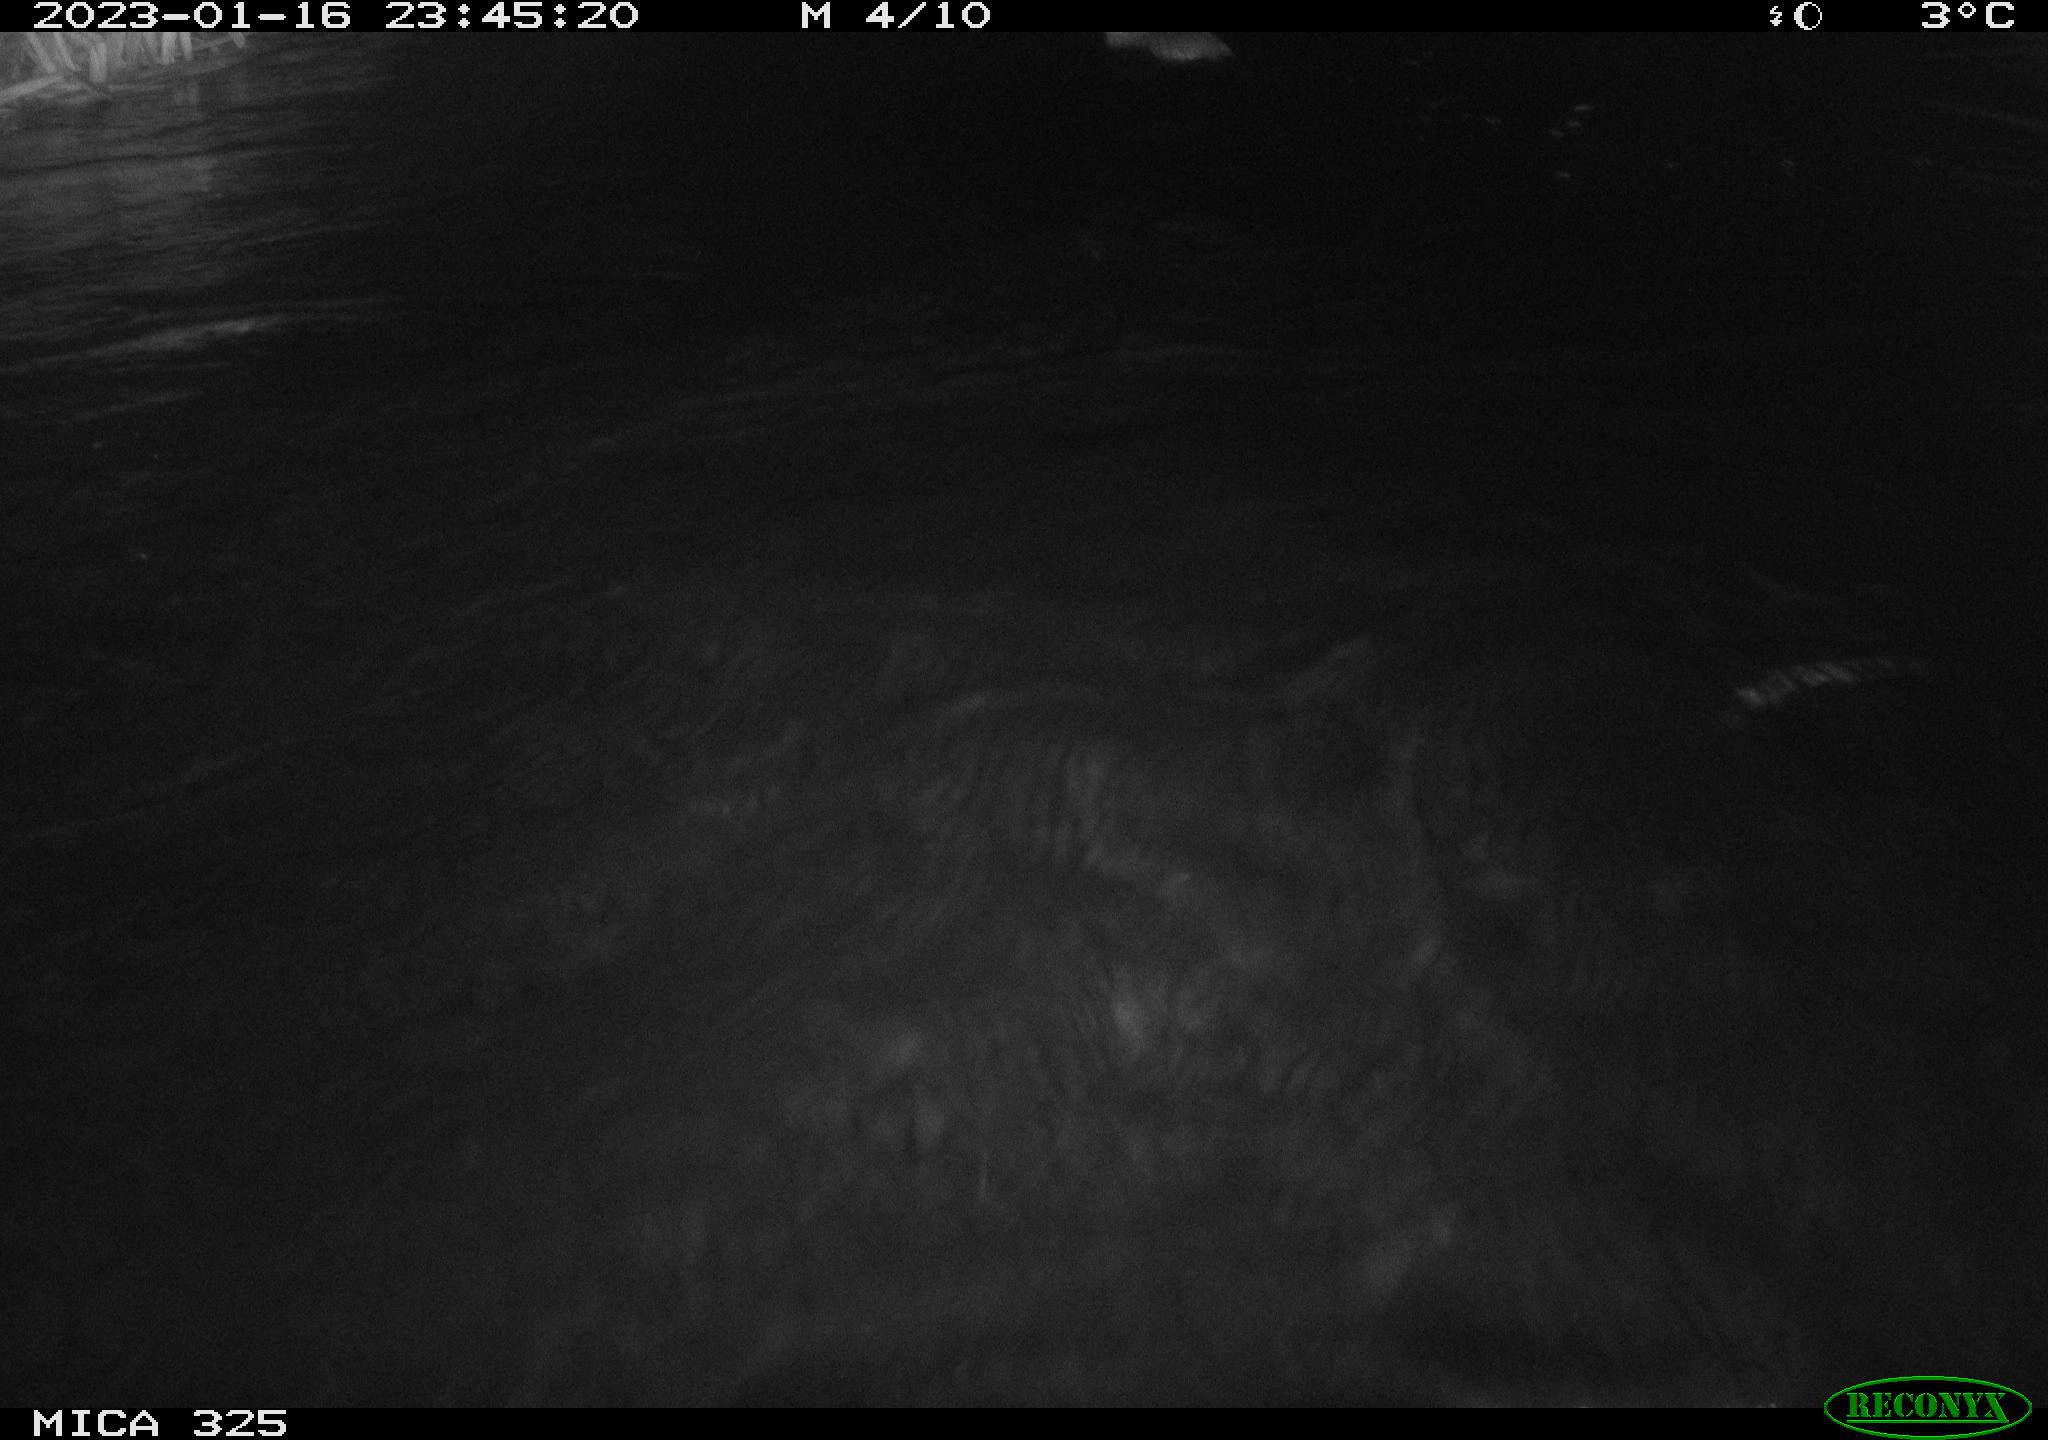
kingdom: Animalia
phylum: Chordata
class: Mammalia
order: Rodentia
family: Myocastoridae
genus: Myocastor
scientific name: Myocastor coypus
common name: Coypu
